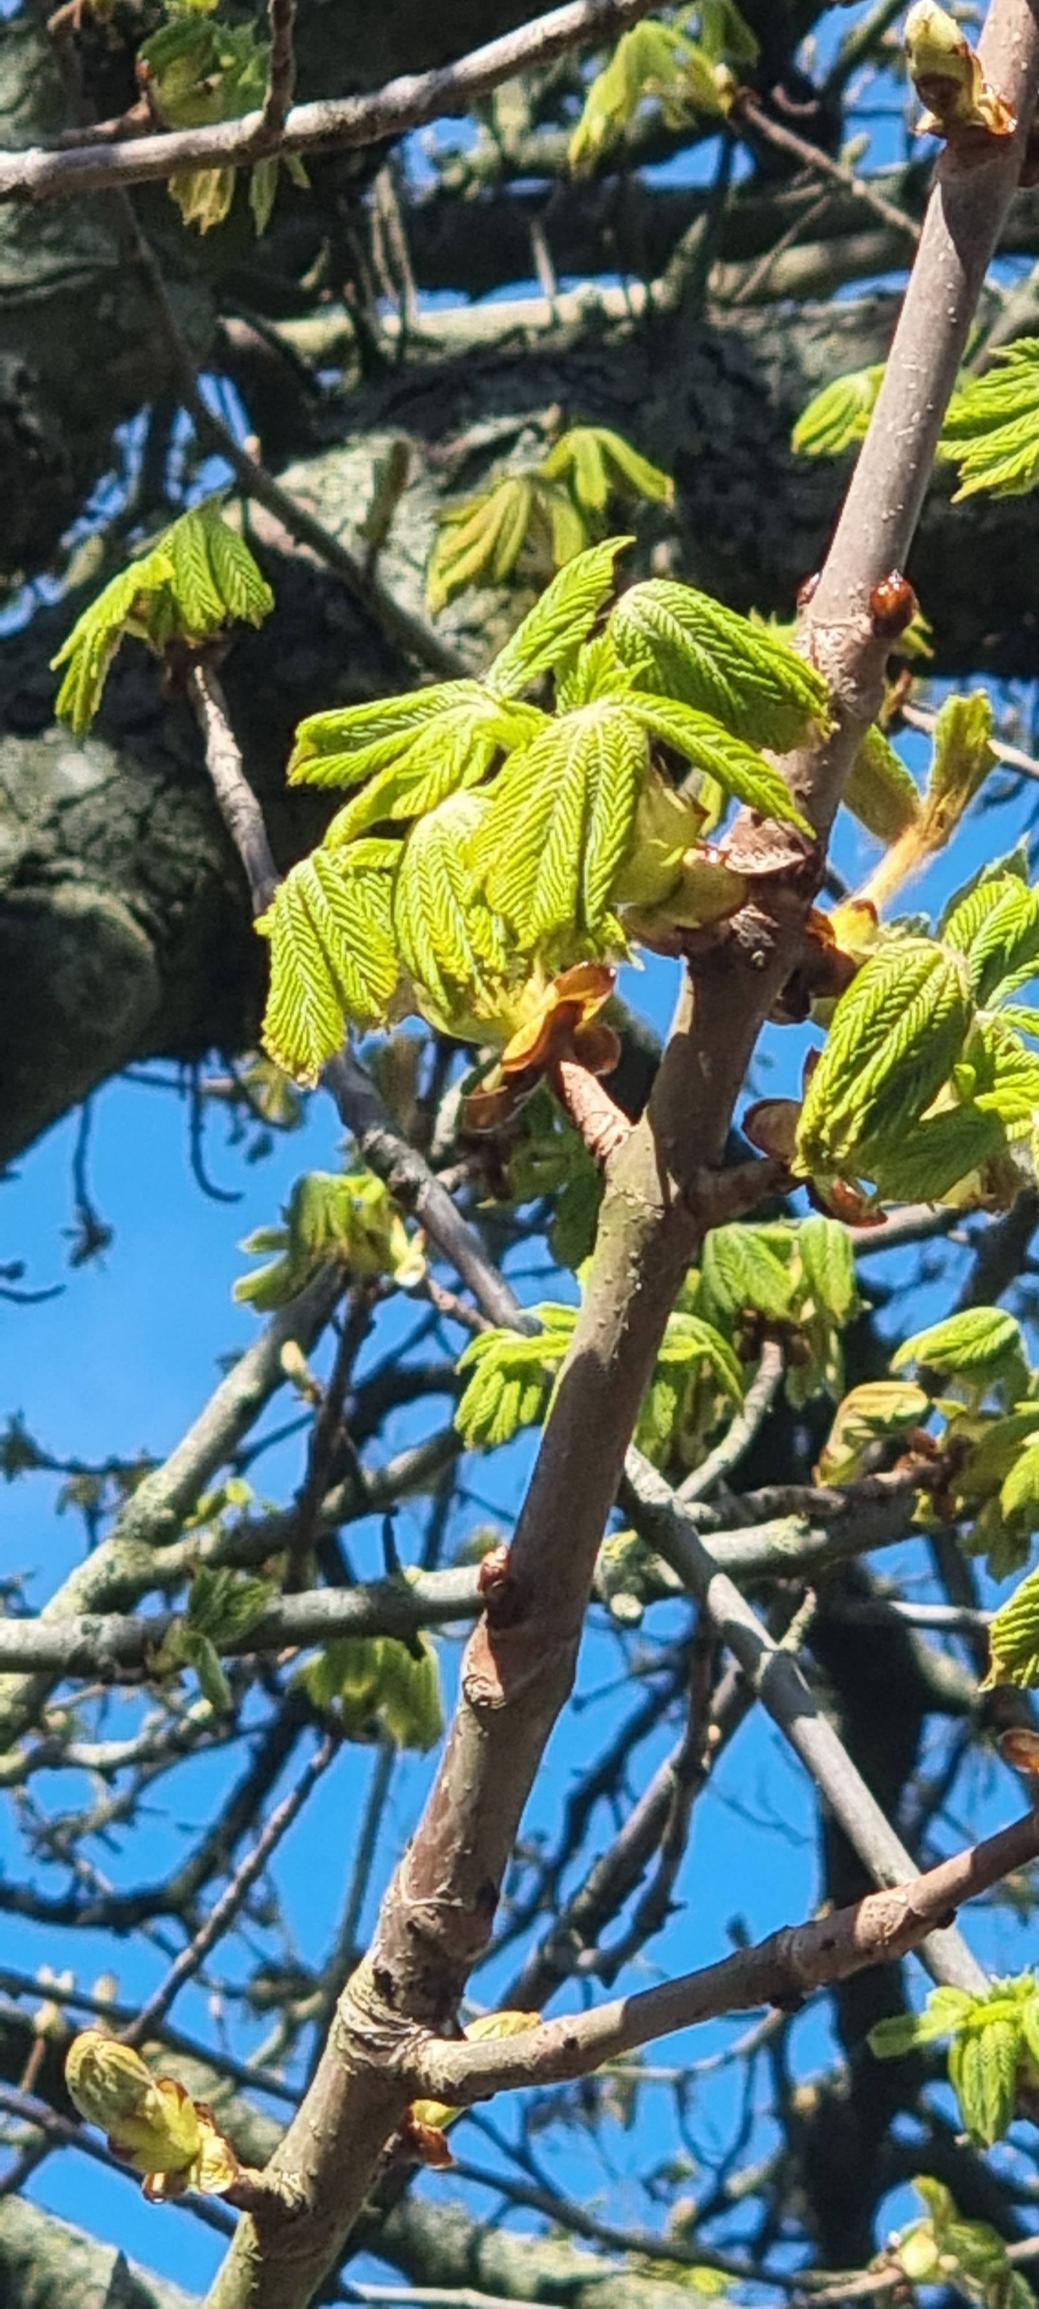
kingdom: Plantae
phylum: Tracheophyta
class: Magnoliopsida
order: Sapindales
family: Sapindaceae
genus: Aesculus
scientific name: Aesculus hippocastanum
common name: Hestekastanie
